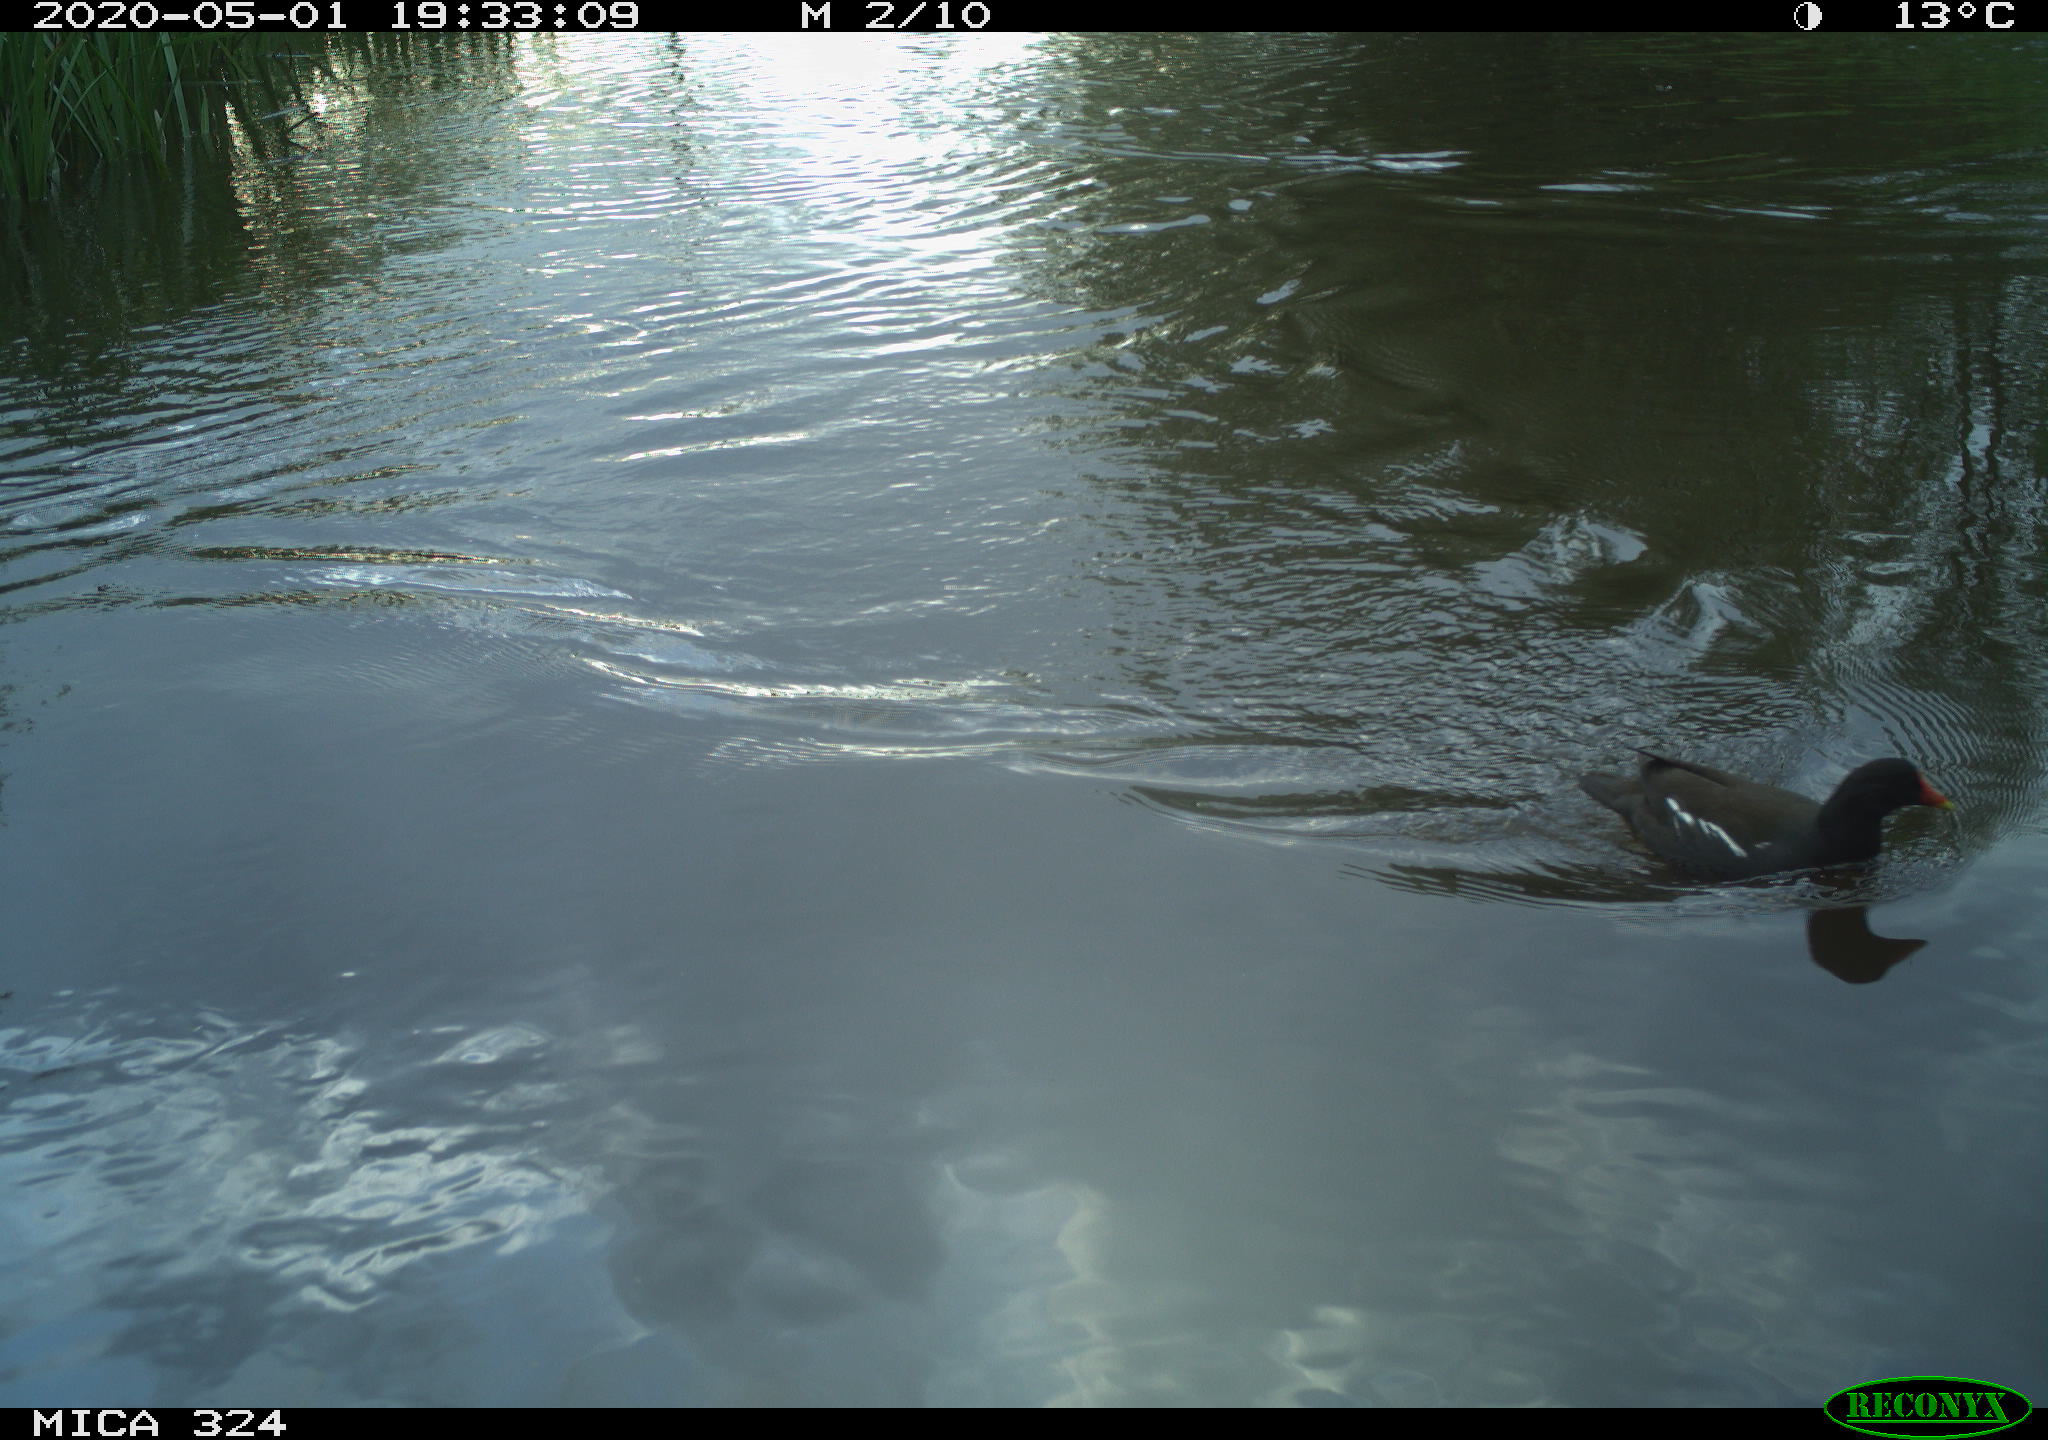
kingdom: Animalia
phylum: Chordata
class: Aves
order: Gruiformes
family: Rallidae
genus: Gallinula
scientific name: Gallinula chloropus
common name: Common moorhen
